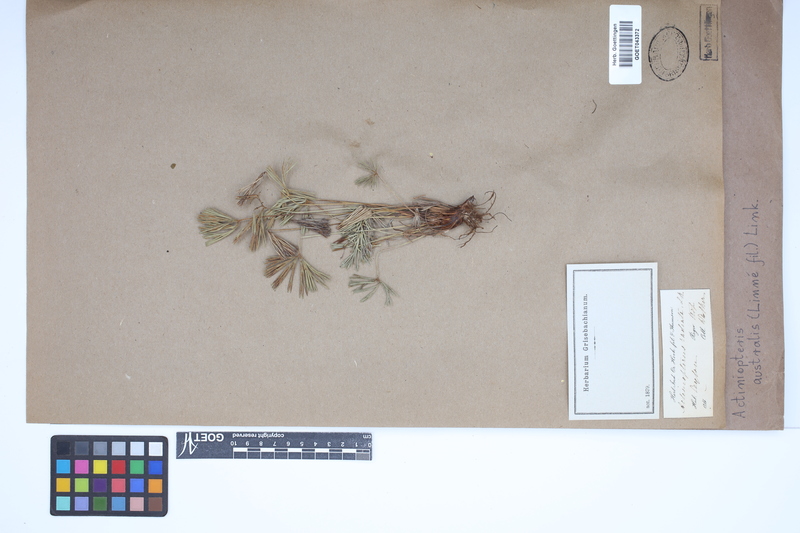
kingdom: Plantae
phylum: Tracheophyta
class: Polypodiopsida
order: Polypodiales
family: Pteridaceae
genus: Actiniopteris
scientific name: Actiniopteris australis
